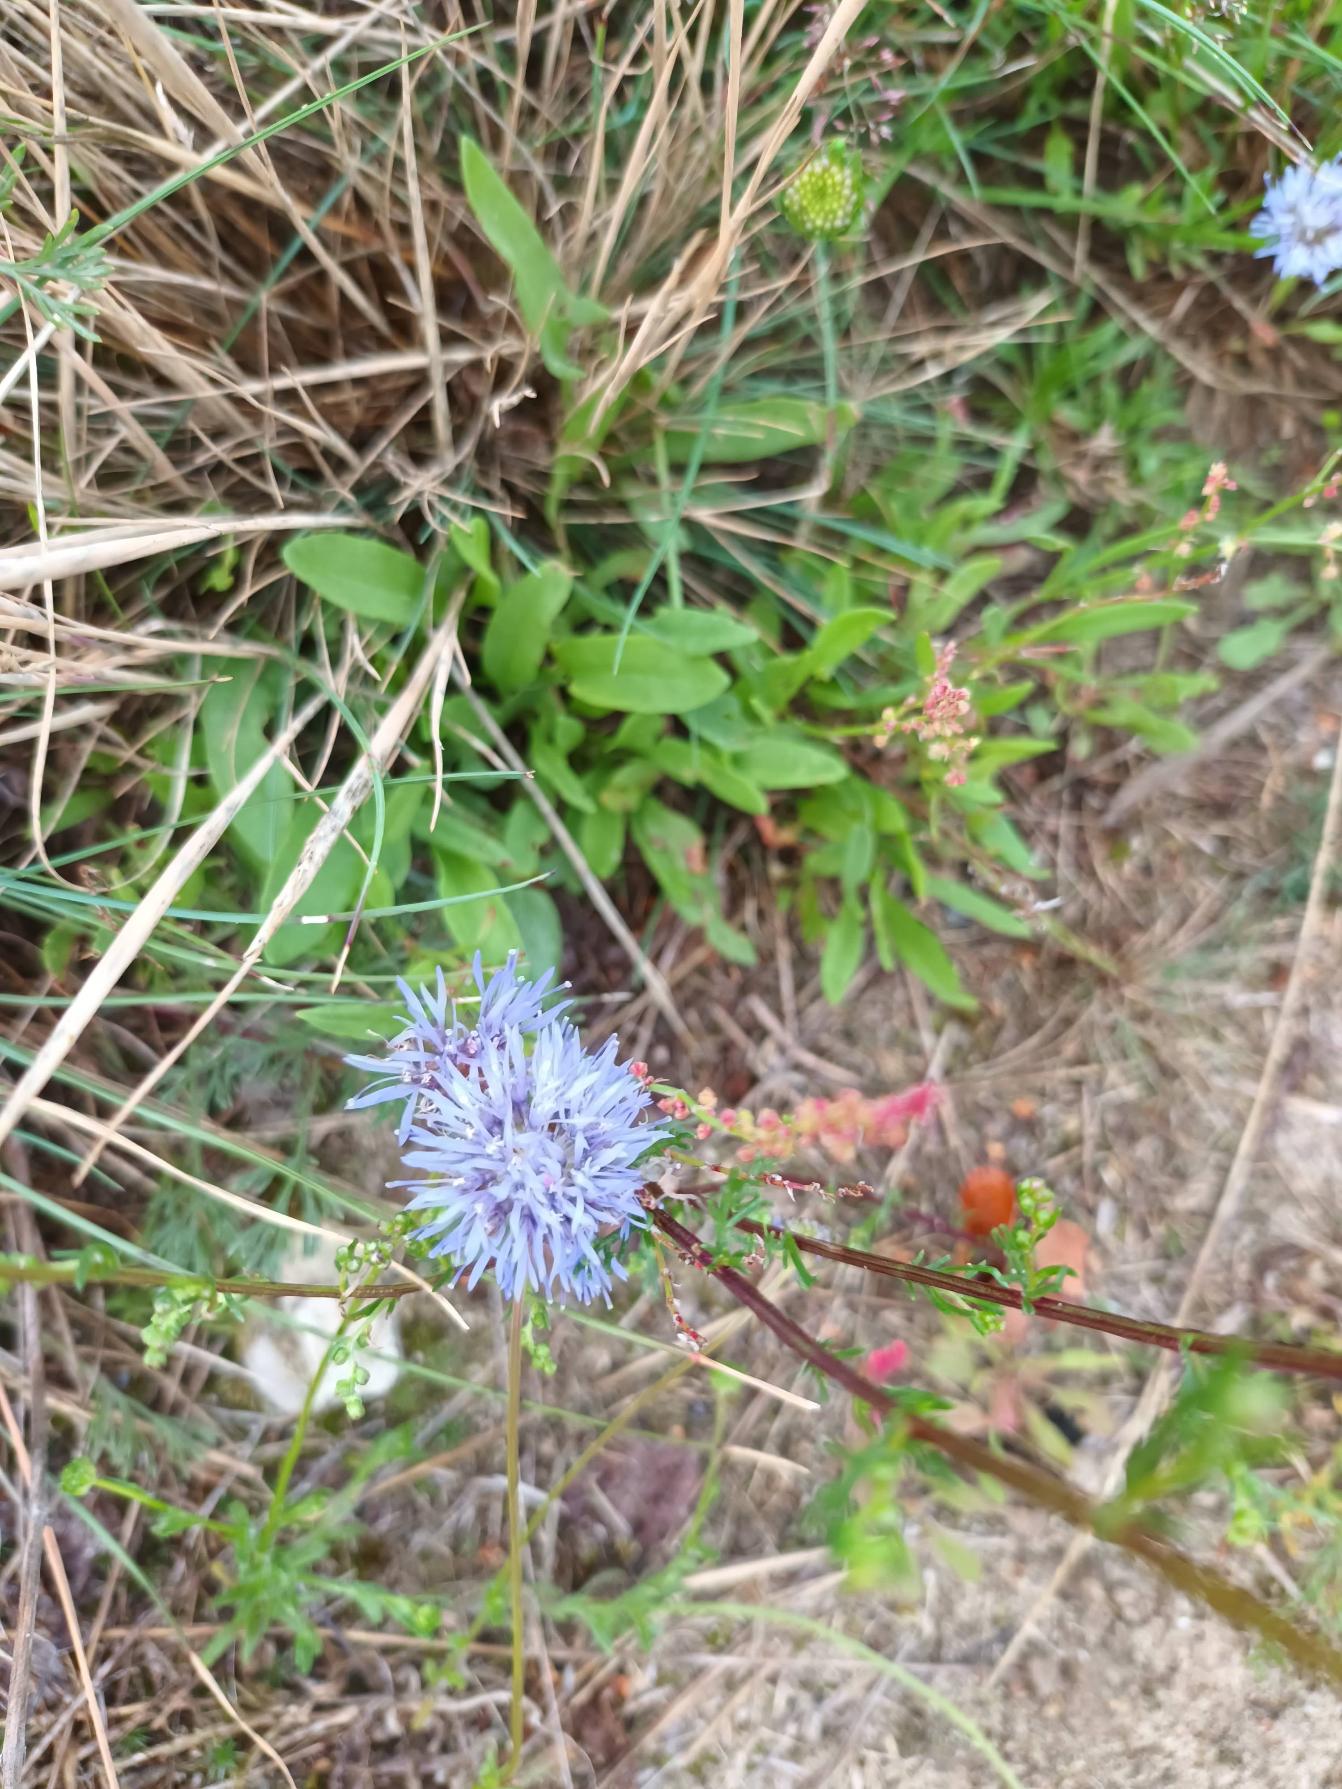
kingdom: Plantae
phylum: Tracheophyta
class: Magnoliopsida
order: Asterales
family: Campanulaceae
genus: Jasione
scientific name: Jasione montana
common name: Blåmunke
